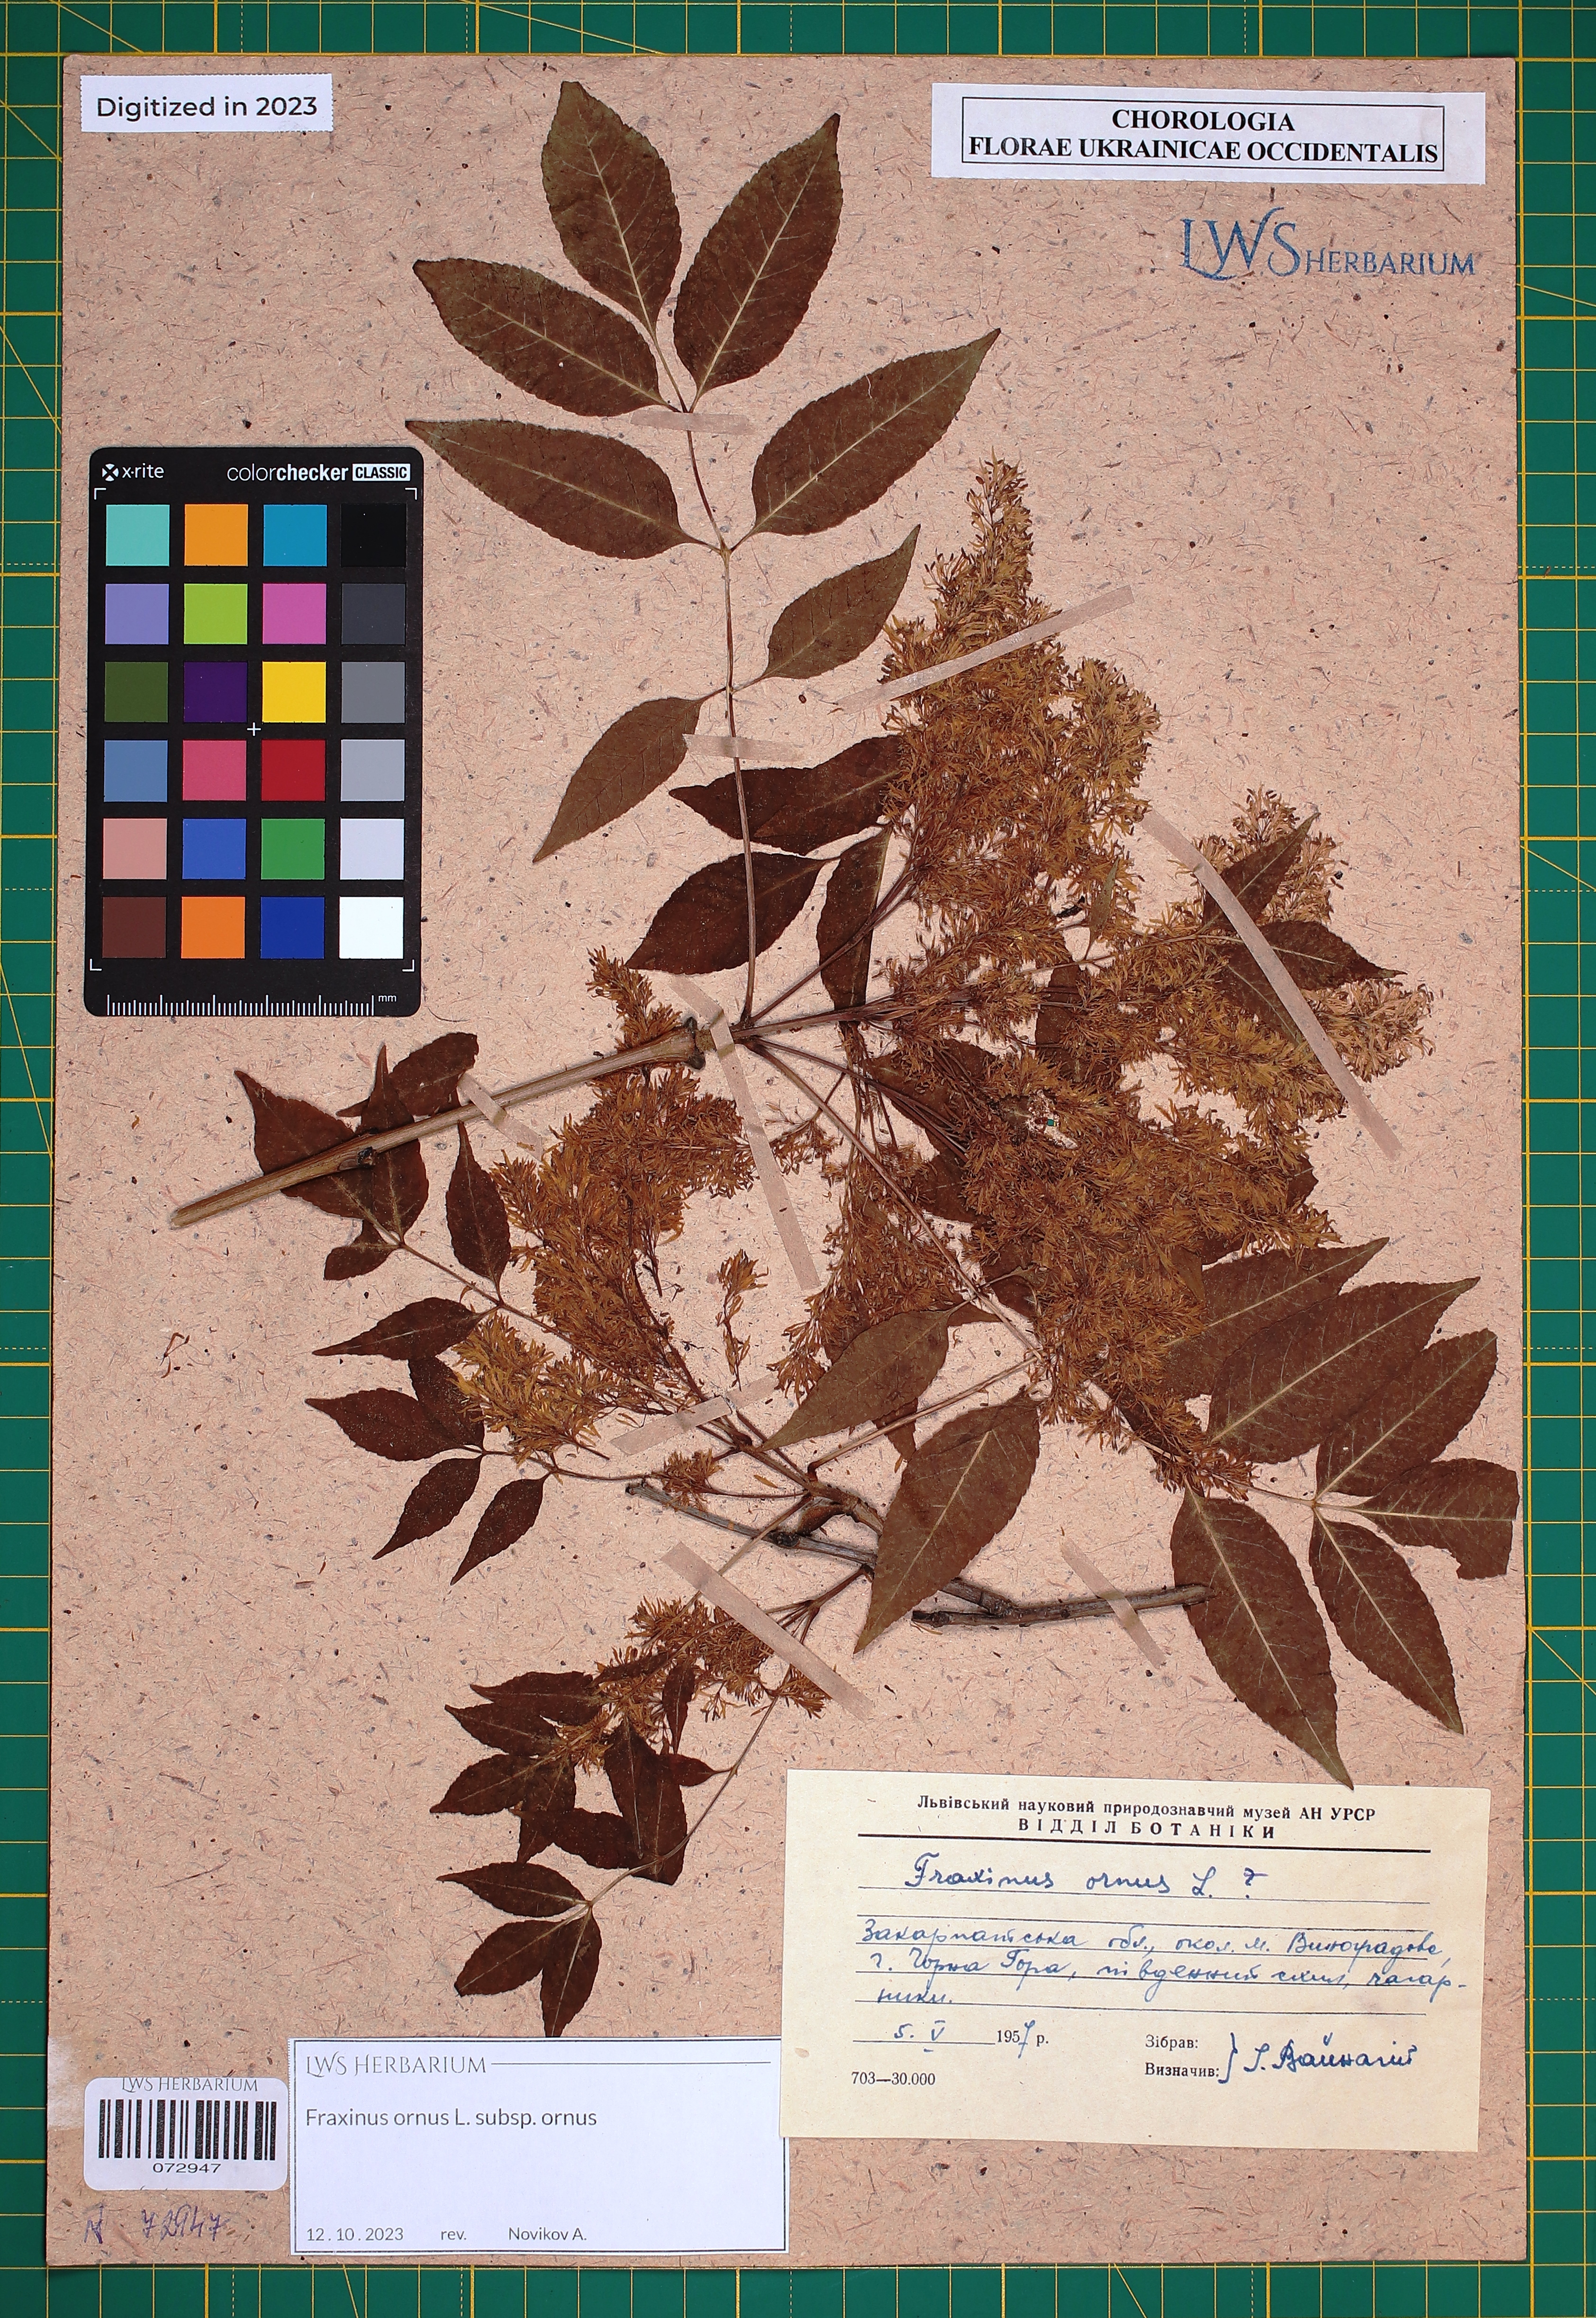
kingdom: Plantae
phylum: Tracheophyta
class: Magnoliopsida
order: Lamiales
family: Oleaceae
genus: Fraxinus
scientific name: Fraxinus ornus
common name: Manna ash
